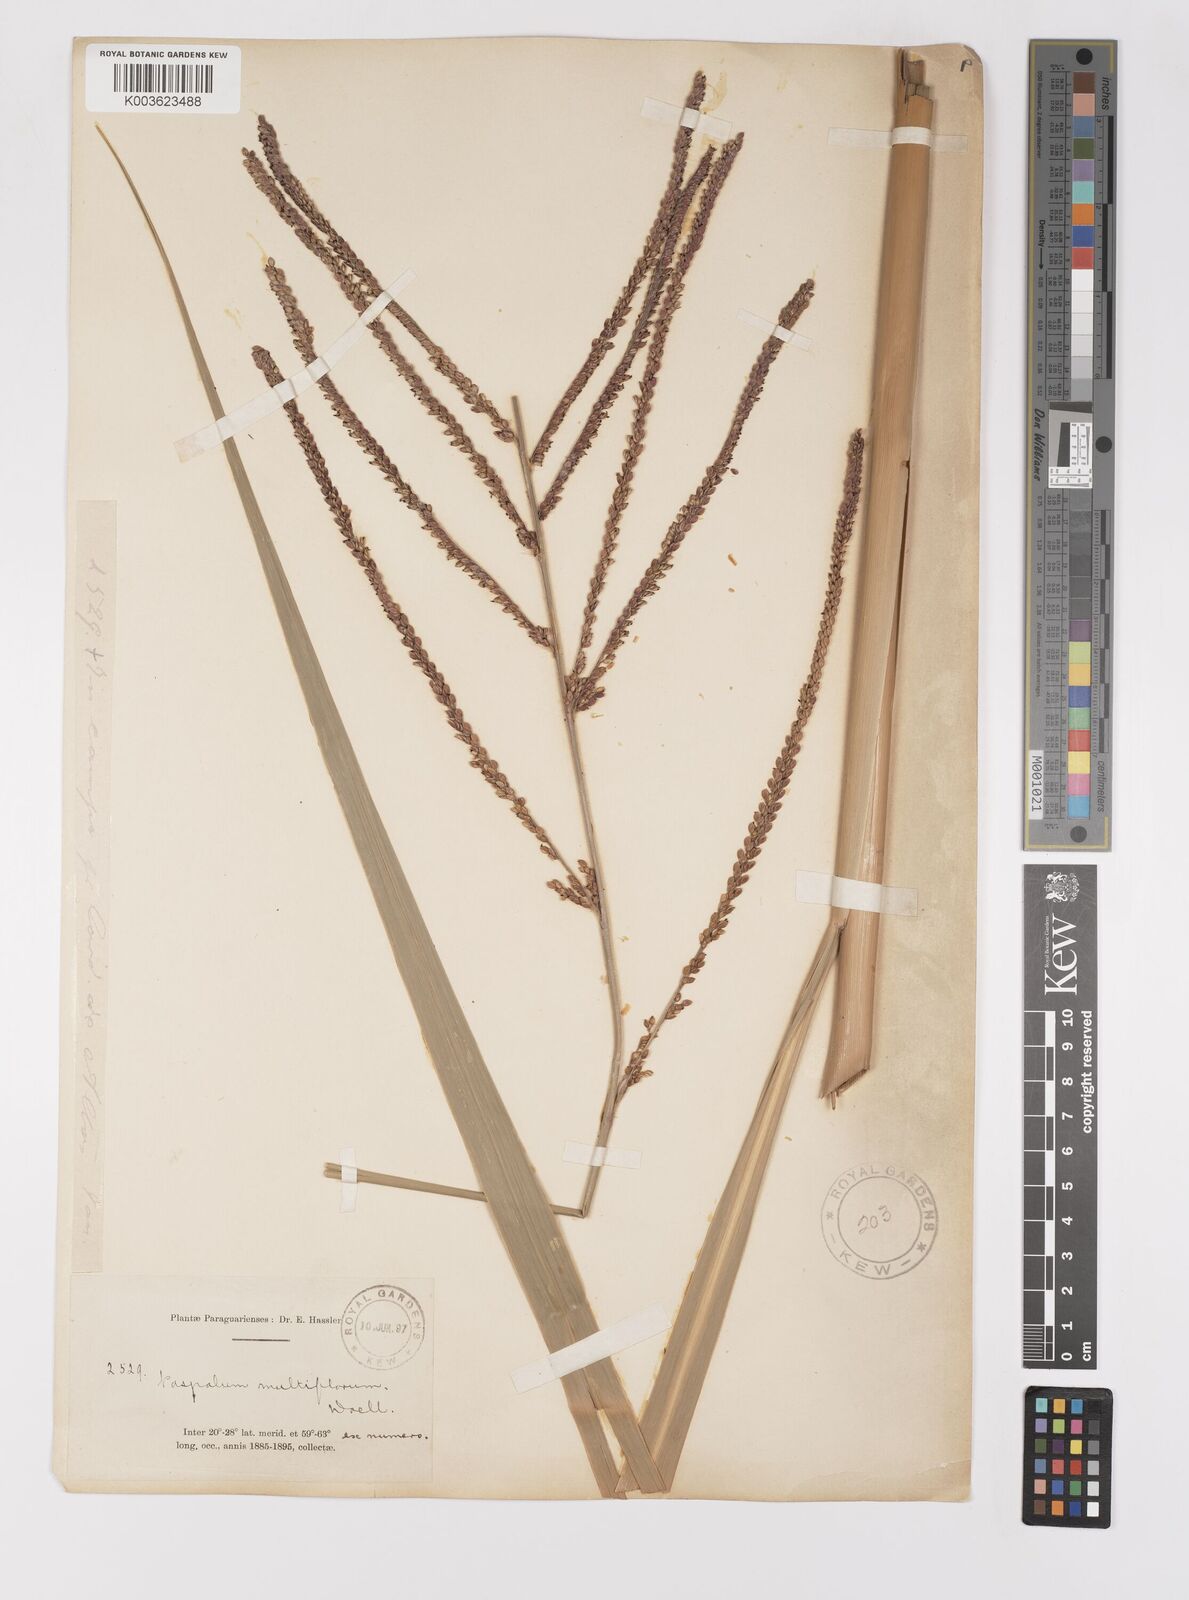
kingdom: Plantae
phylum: Tracheophyta
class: Liliopsida
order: Poales
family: Poaceae
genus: Paspalum
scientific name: Paspalum virgatum
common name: Talquezal
